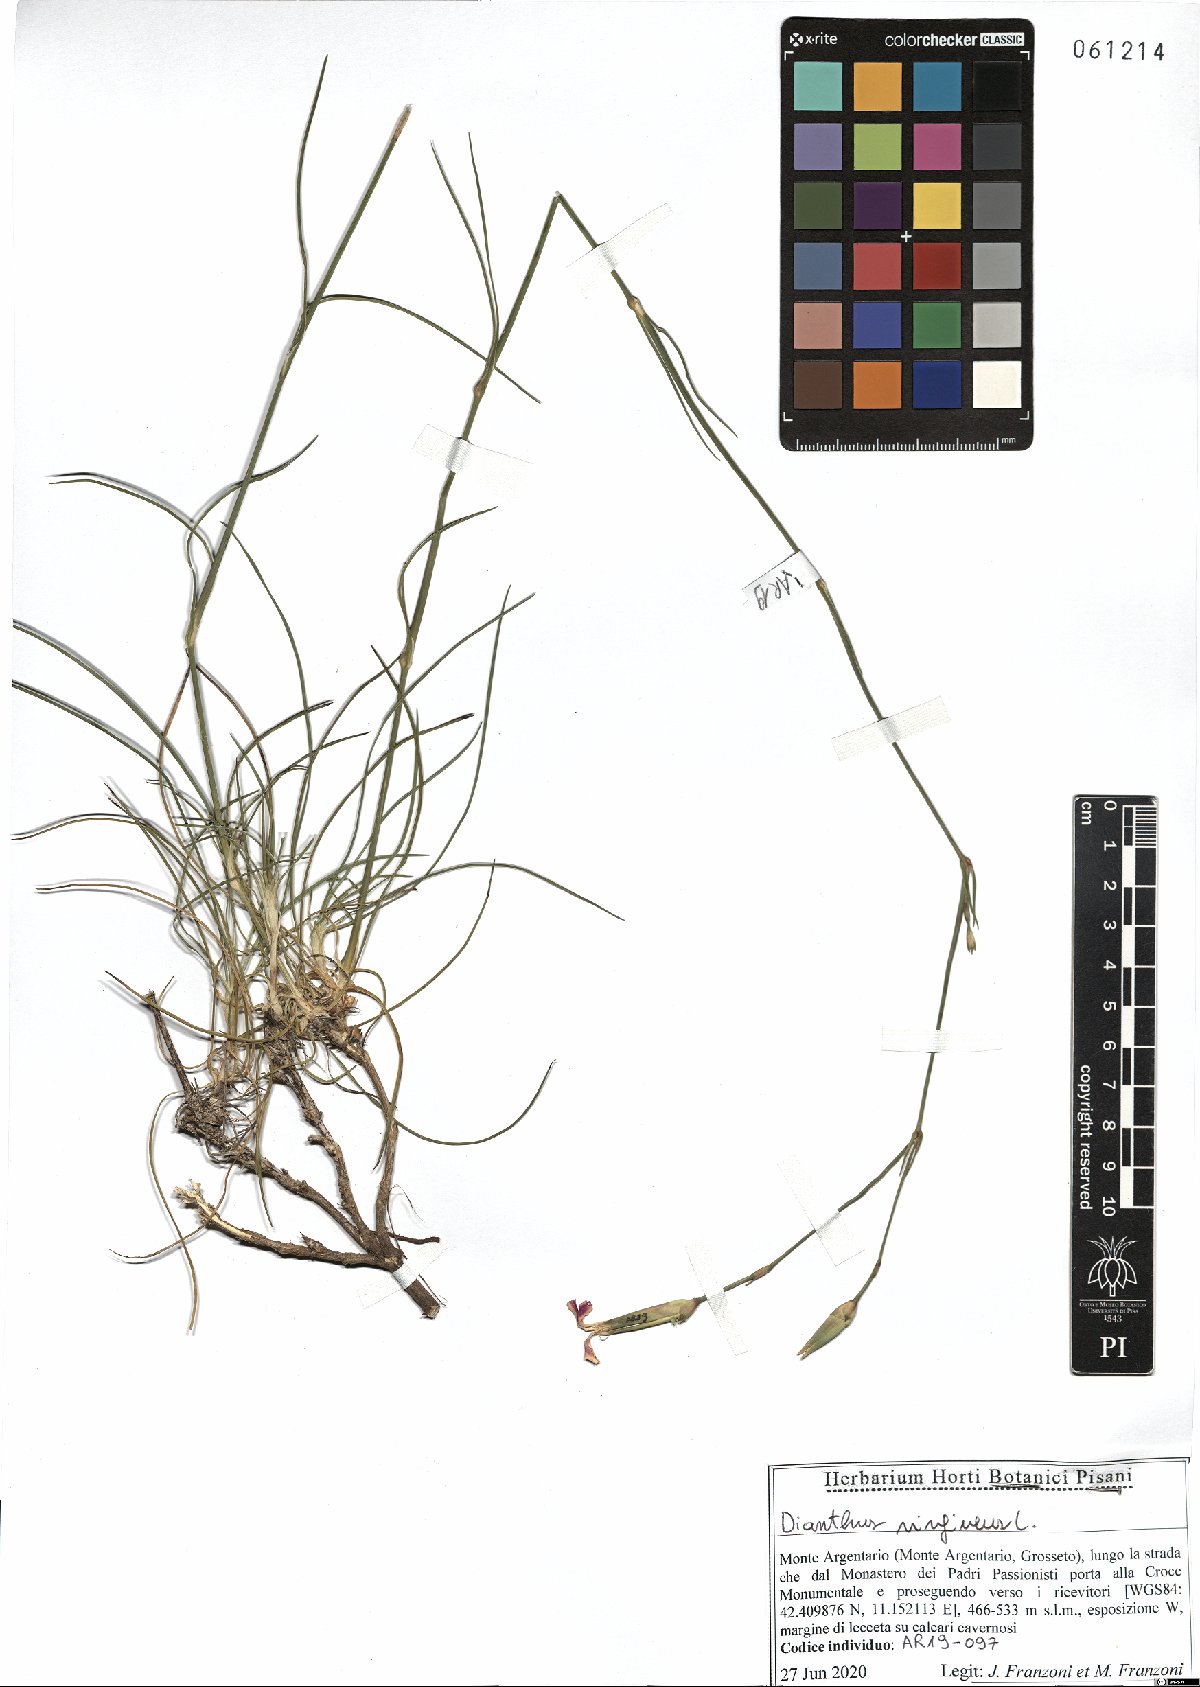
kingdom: Plantae
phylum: Tracheophyta
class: Magnoliopsida
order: Caryophyllales
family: Caryophyllaceae
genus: Dianthus
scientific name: Dianthus virgineus
